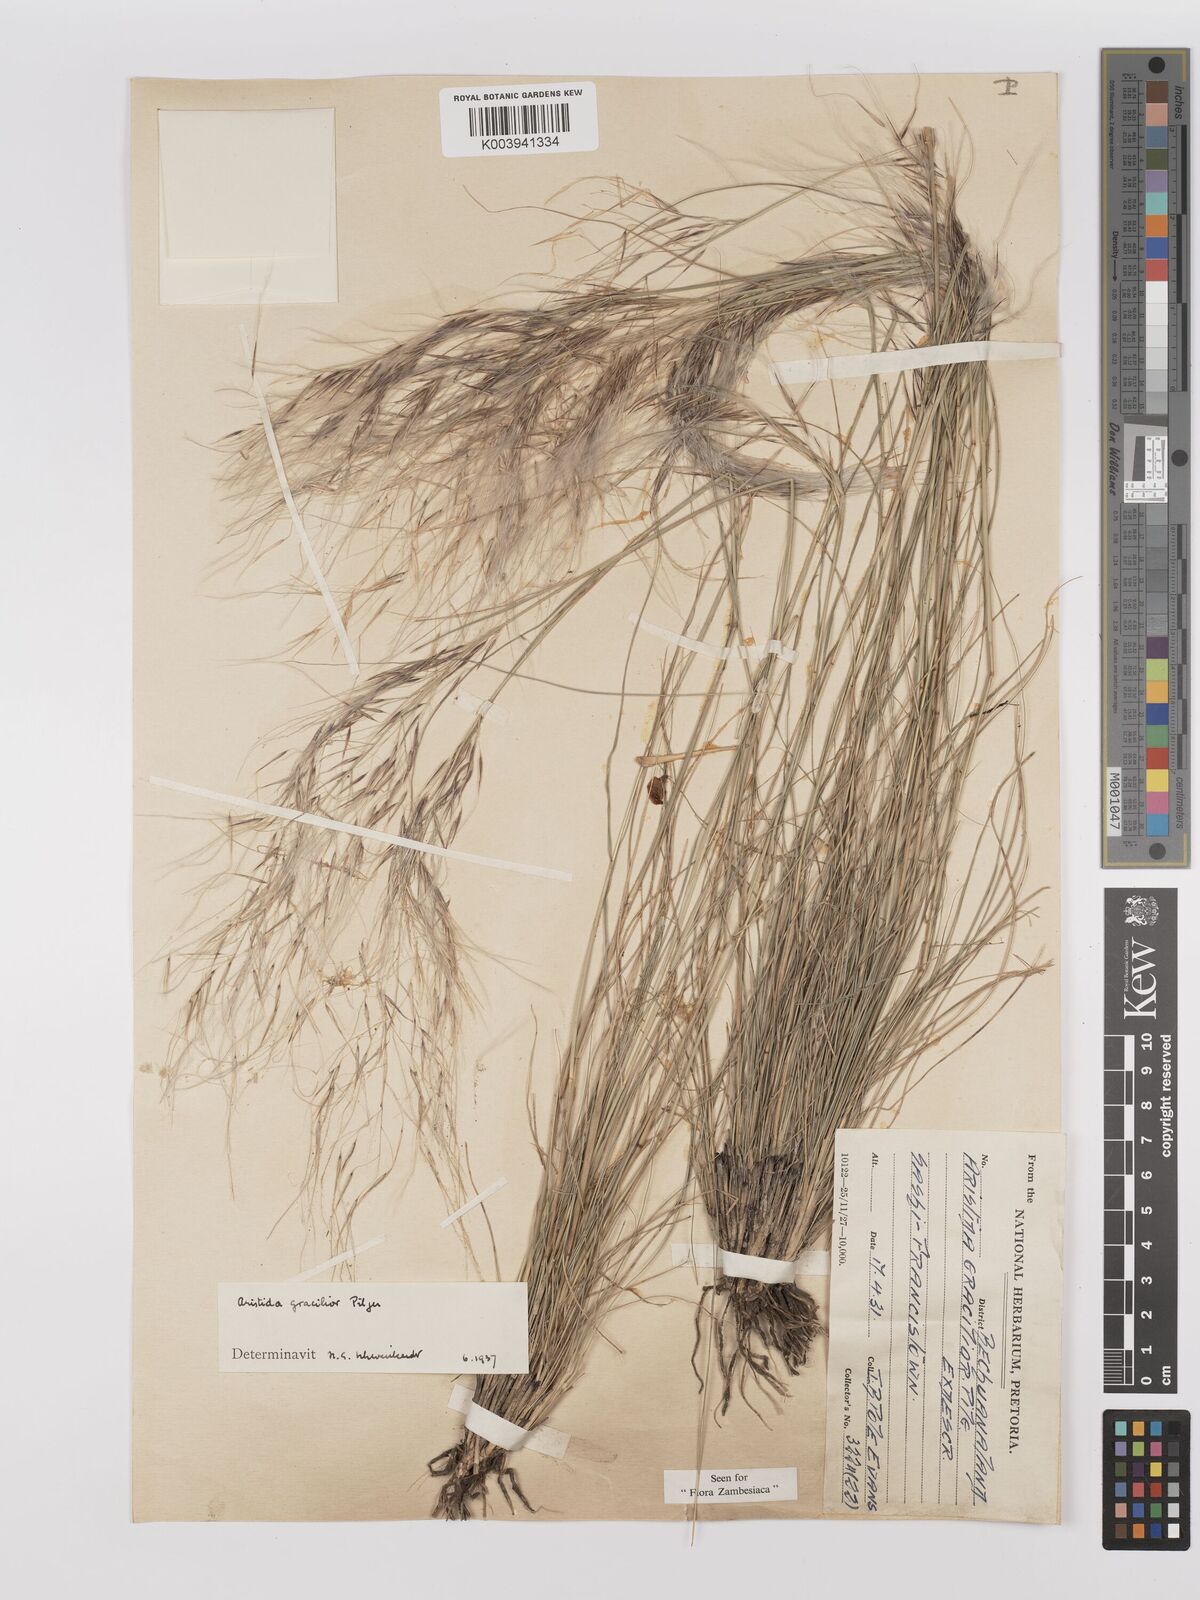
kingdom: Plantae
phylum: Tracheophyta
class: Liliopsida
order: Poales
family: Poaceae
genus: Stipagrostis
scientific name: Stipagrostis hirtigluma
